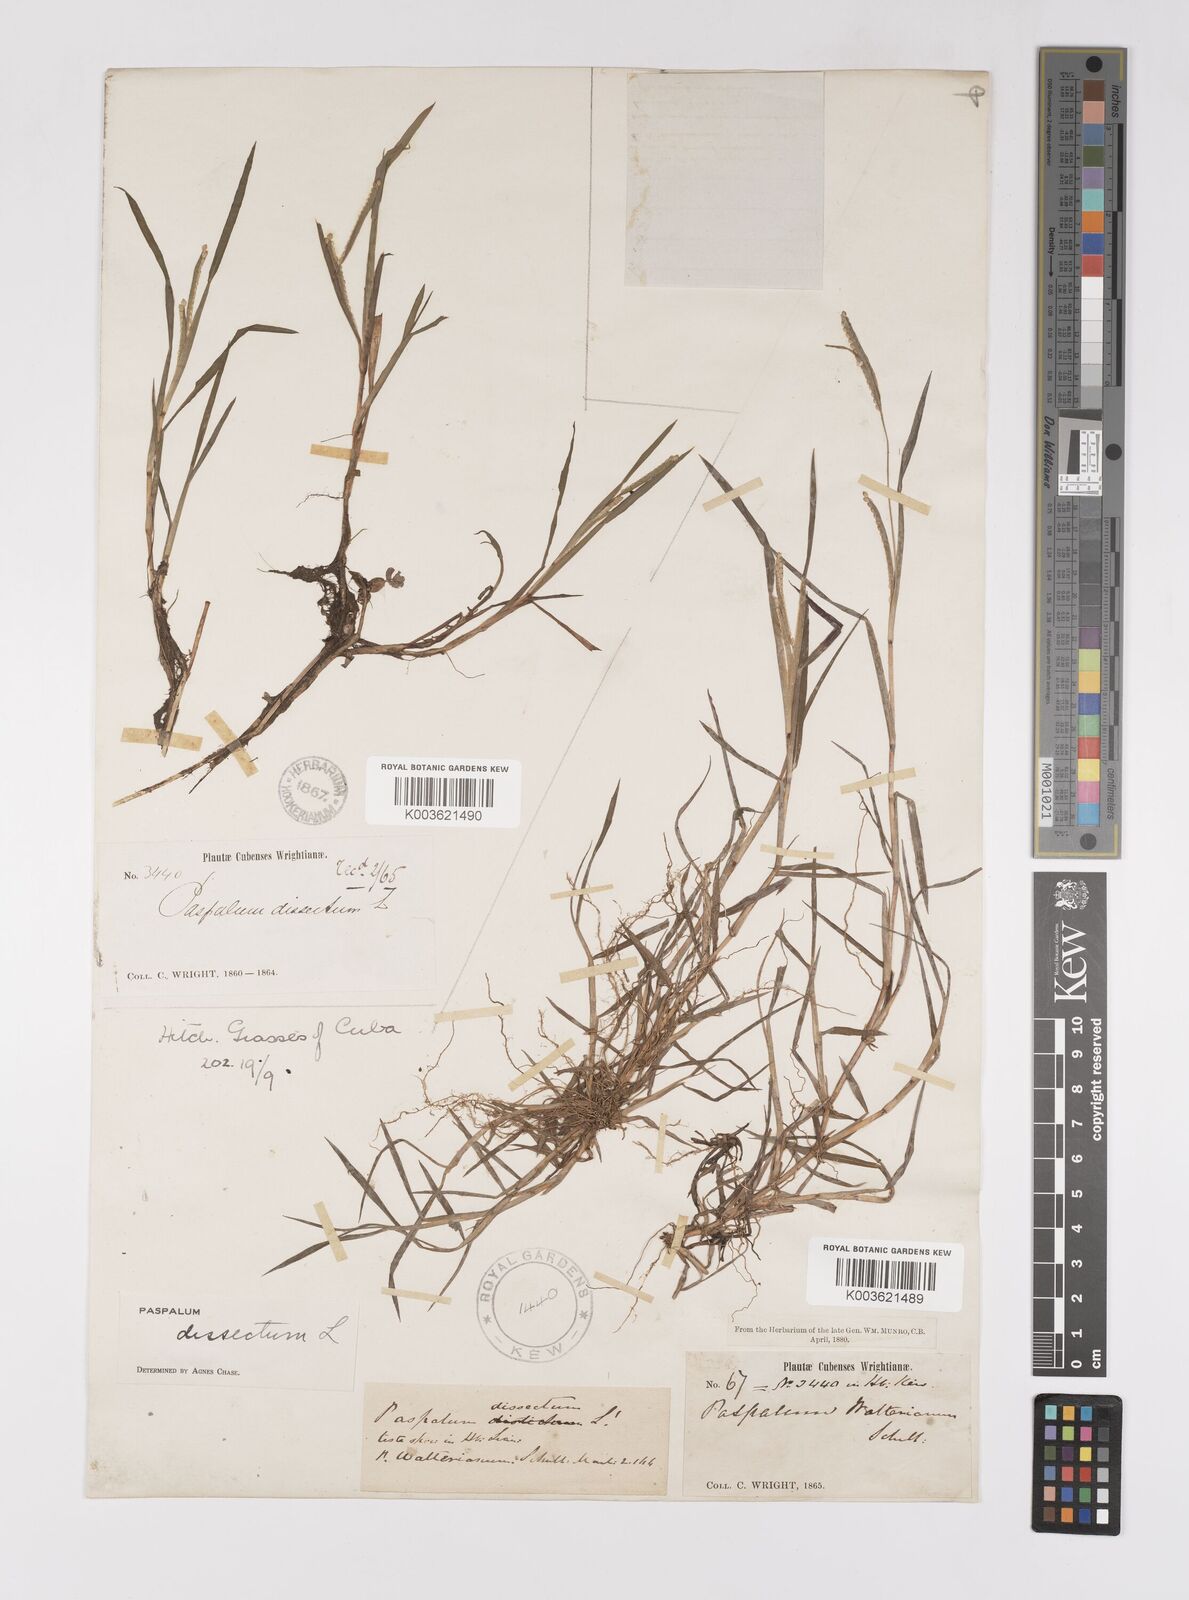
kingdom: Plantae
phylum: Tracheophyta
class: Liliopsida
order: Poales
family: Poaceae
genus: Paspalum
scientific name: Paspalum dissectum
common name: Bead grass
